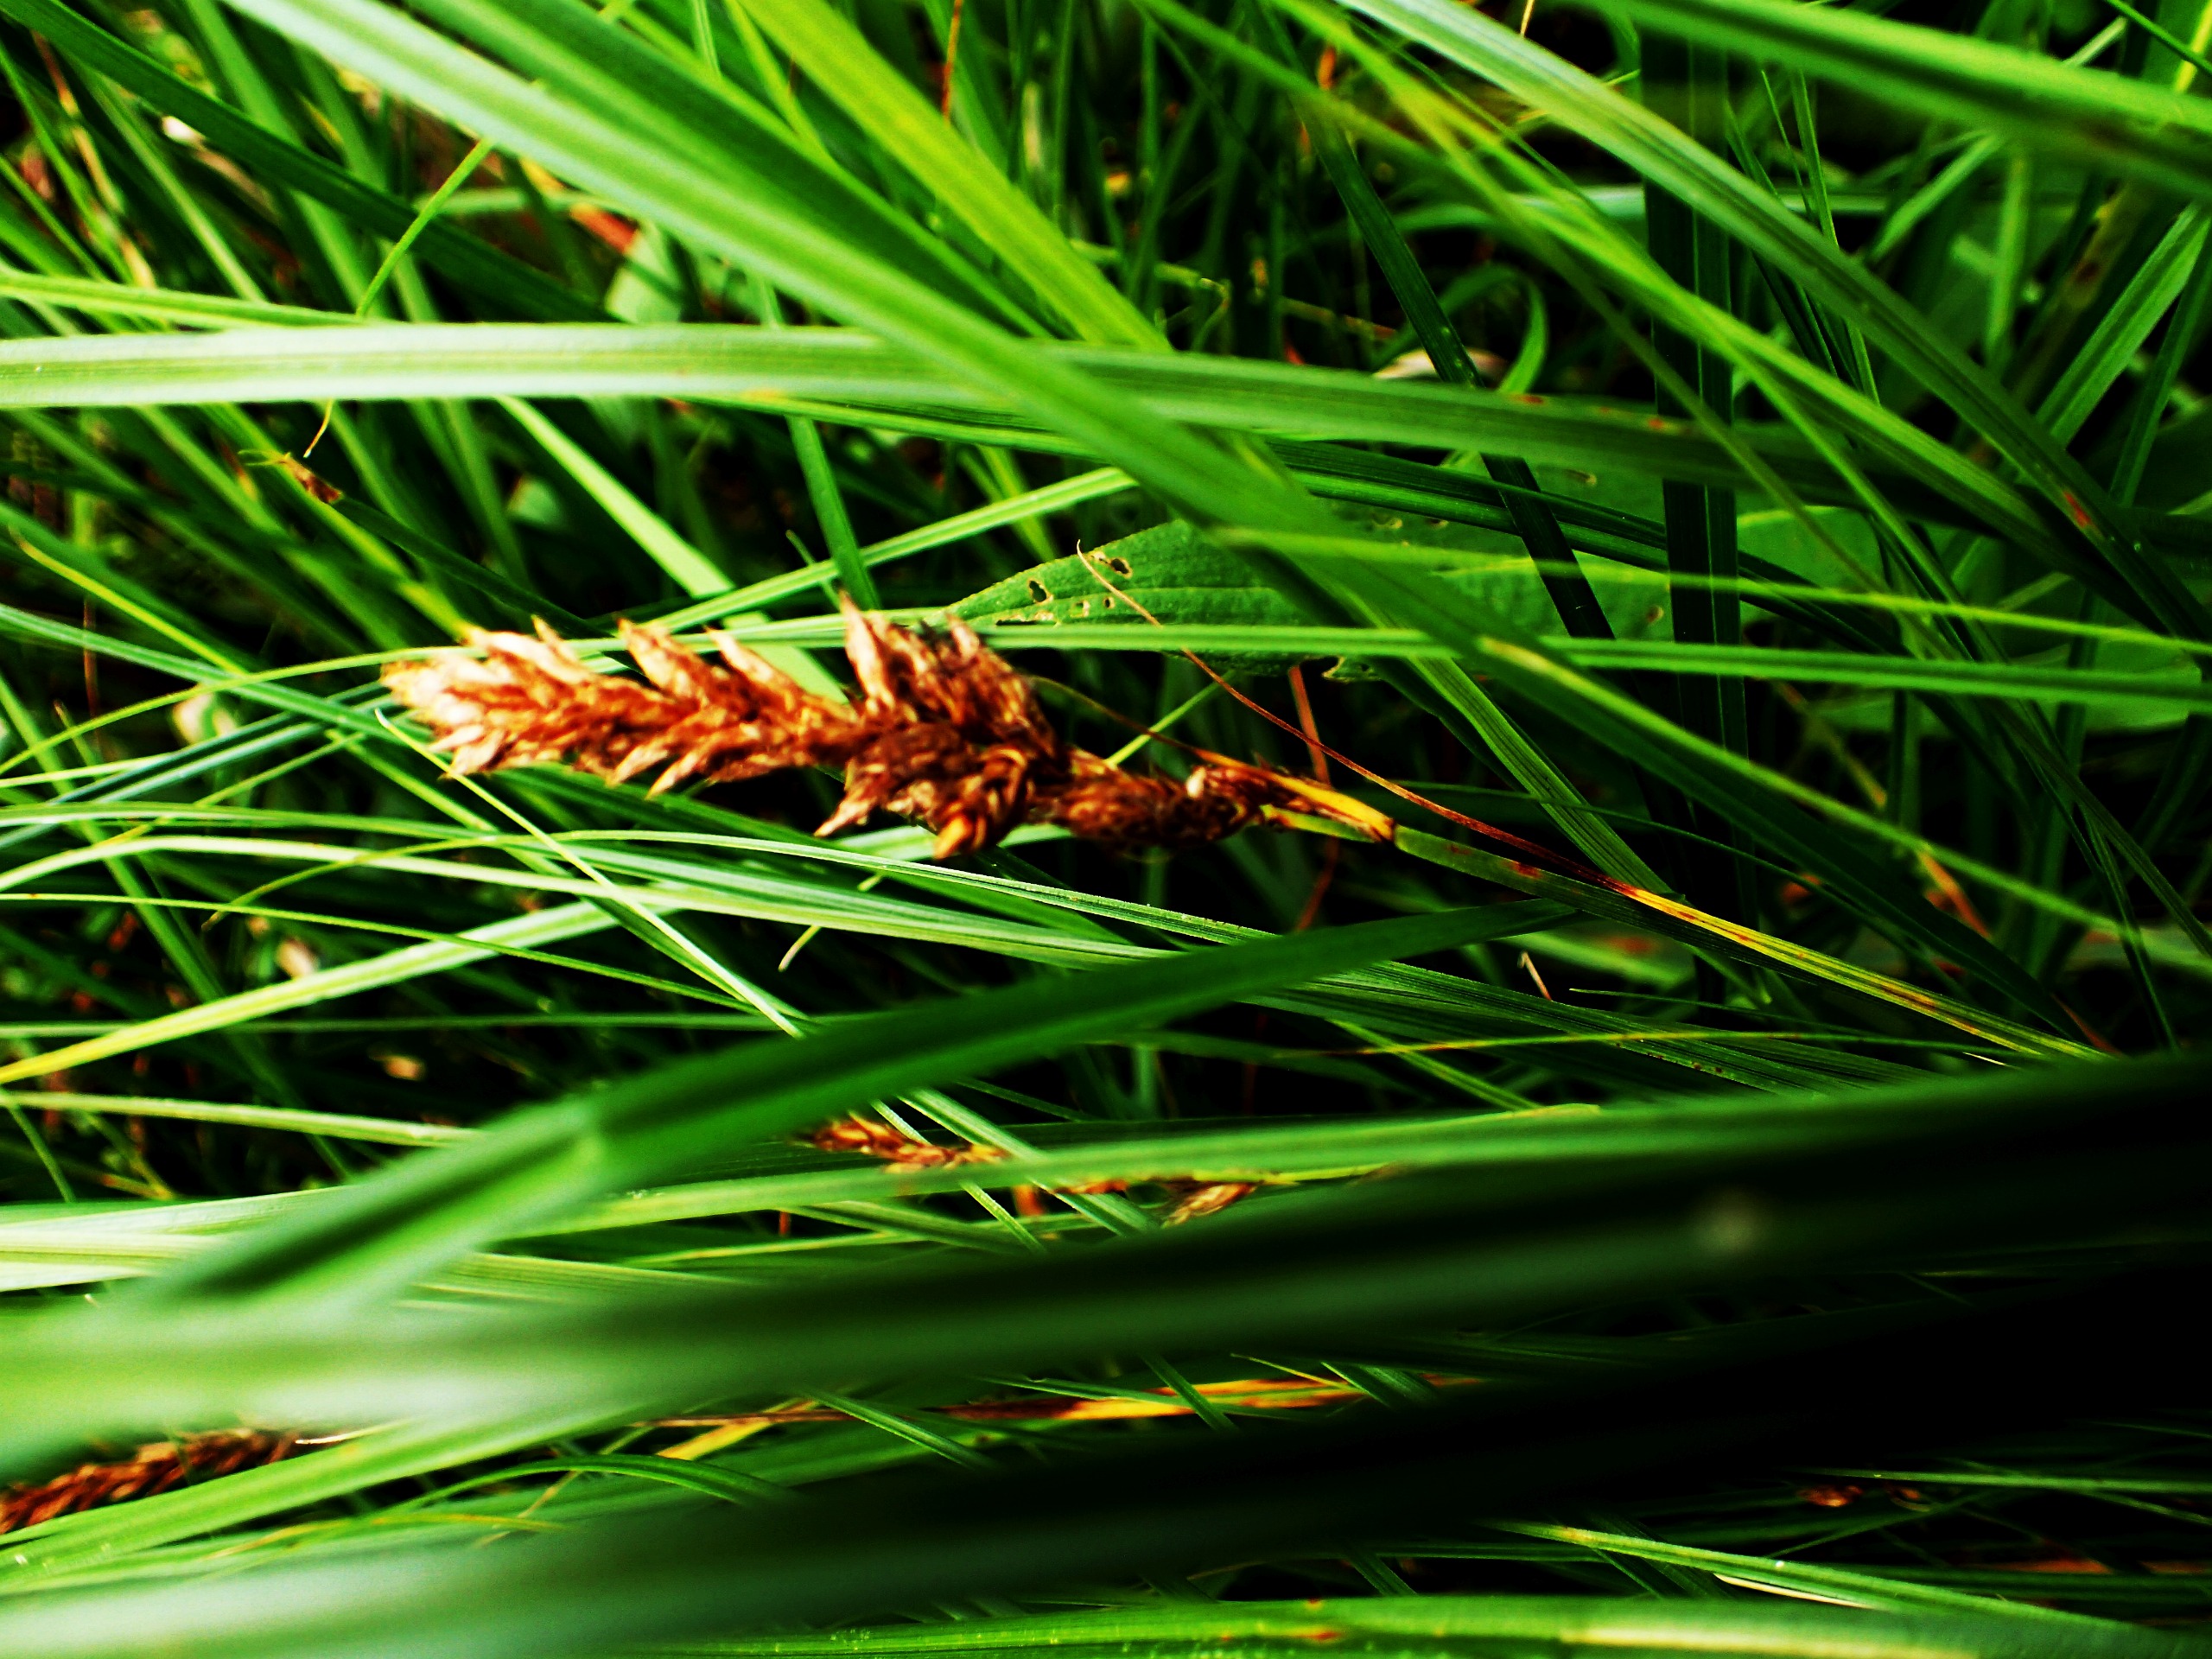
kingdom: Plantae
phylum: Tracheophyta
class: Liliopsida
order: Poales
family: Cyperaceae
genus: Carex
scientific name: Carex disticha
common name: Toradet star
